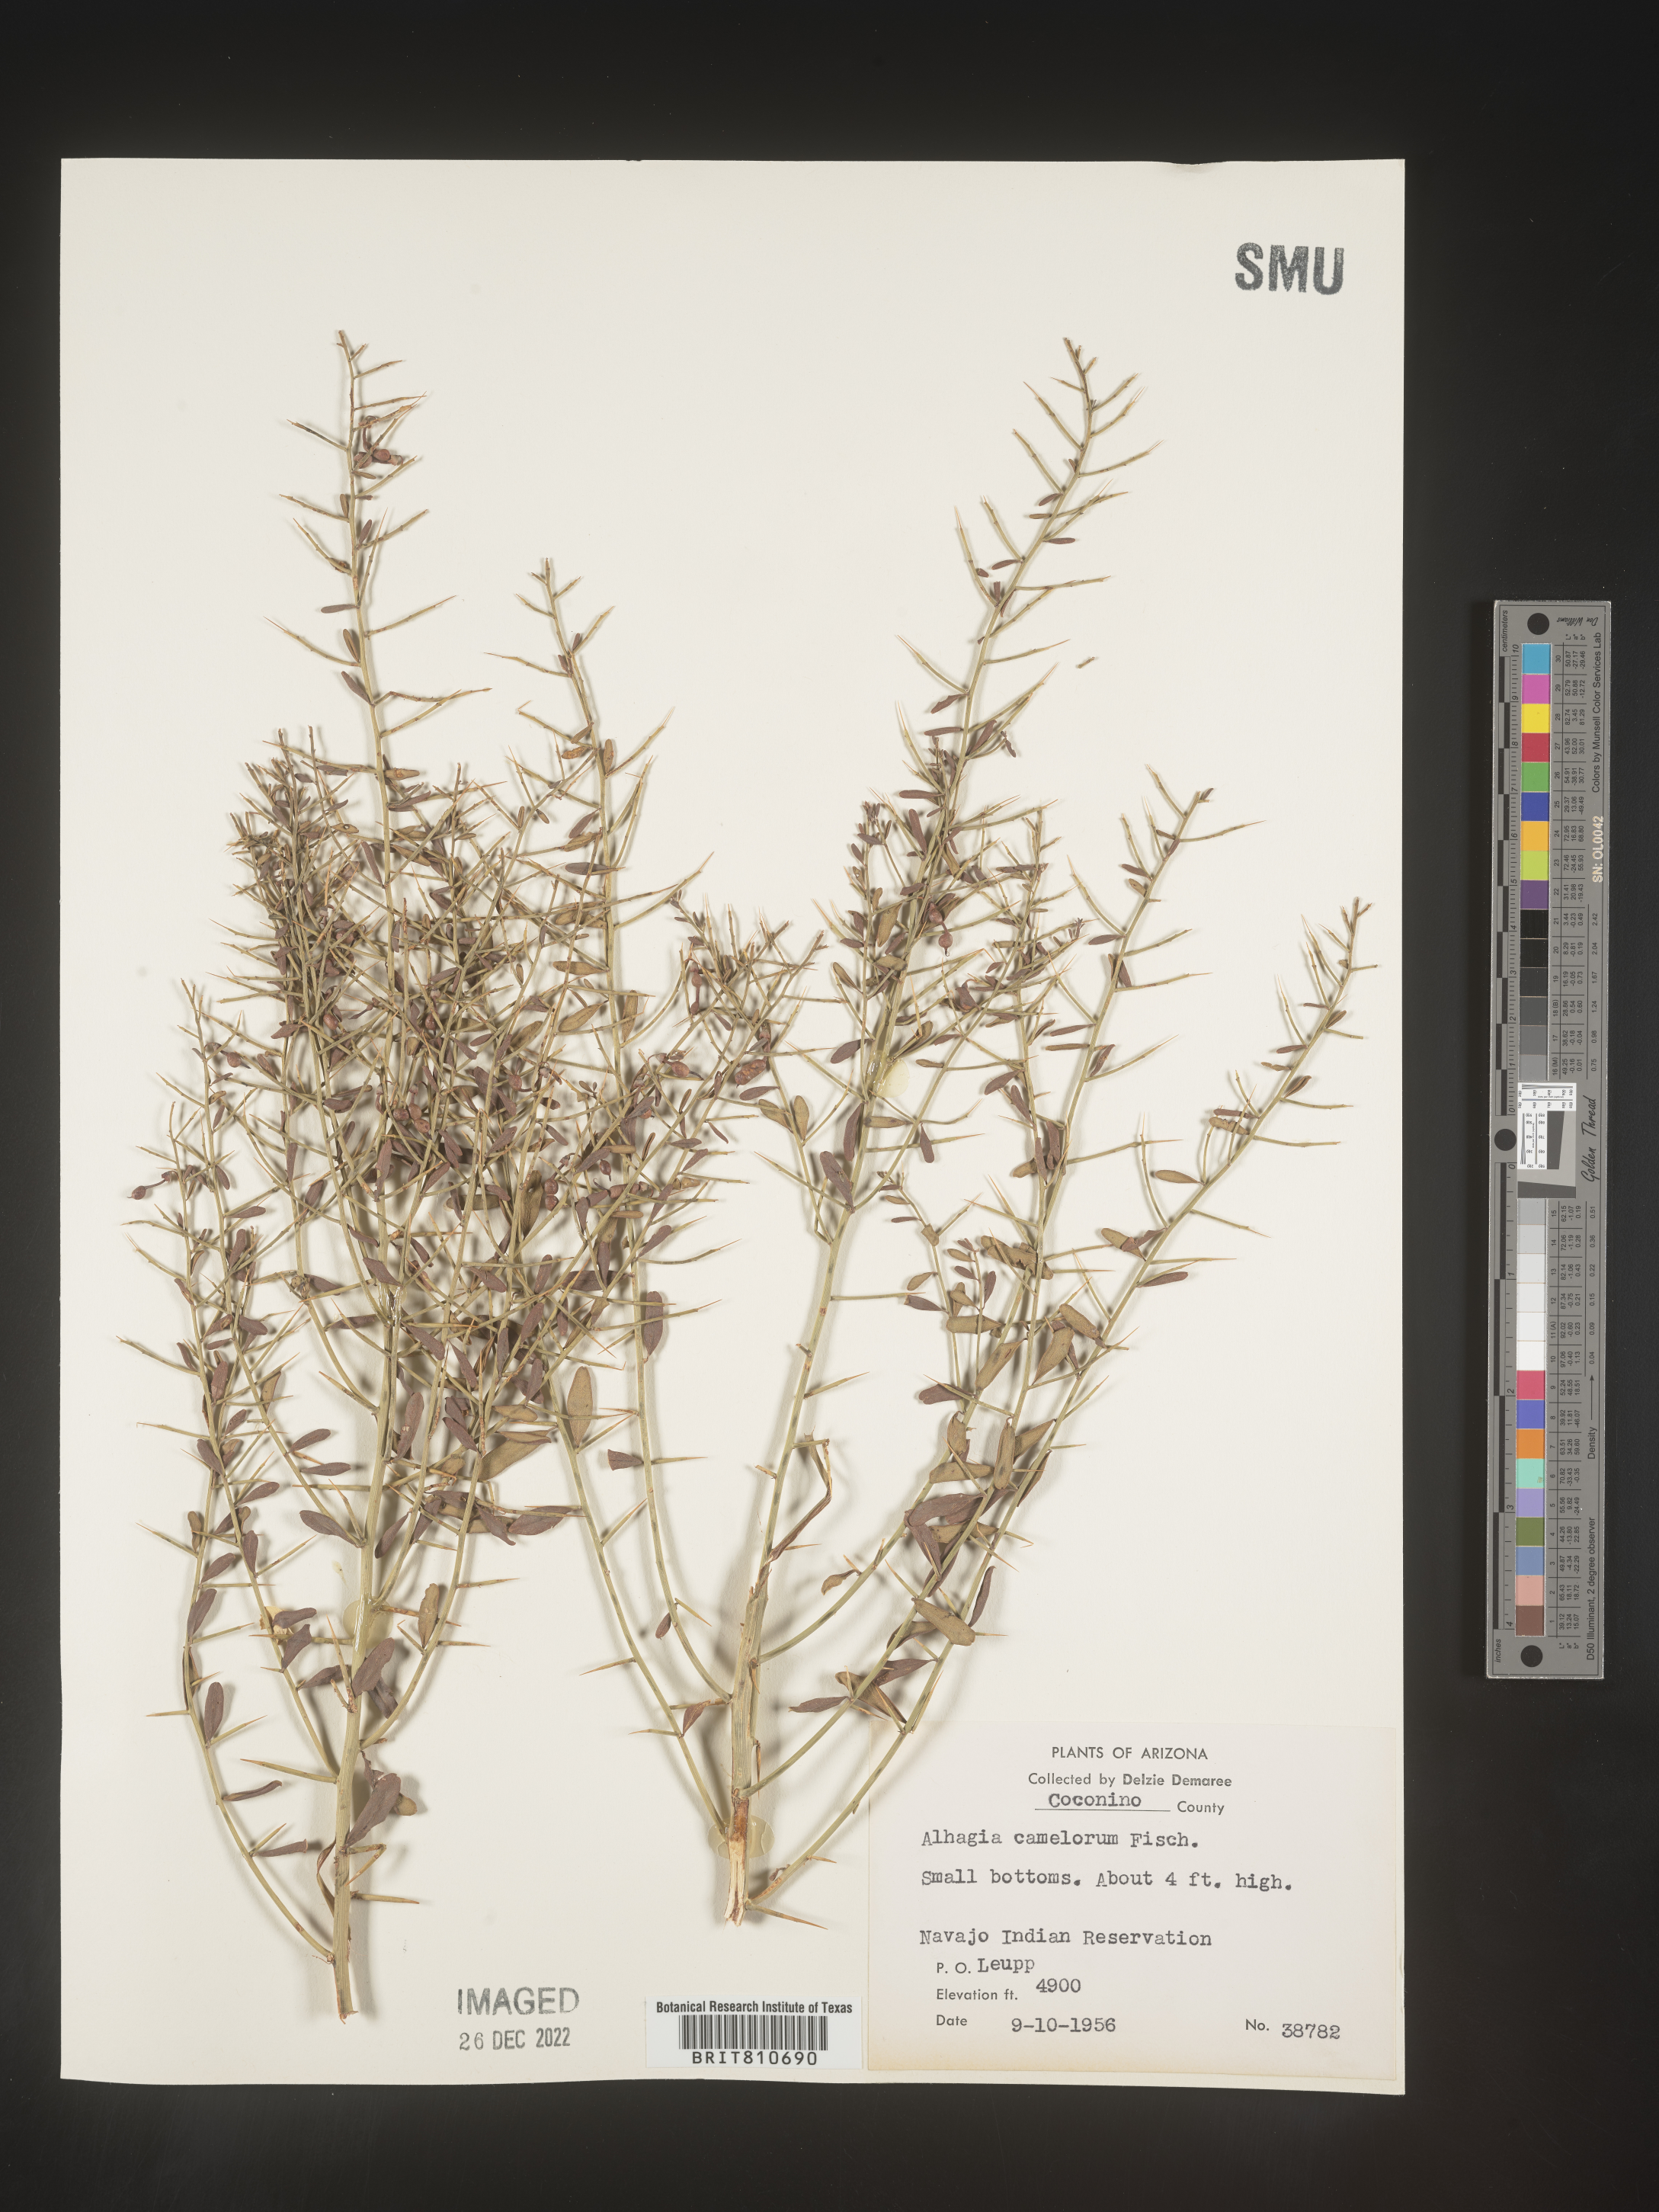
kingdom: Plantae
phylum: Tracheophyta
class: Magnoliopsida
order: Fabales
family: Fabaceae
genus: Alhagi
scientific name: Alhagi
